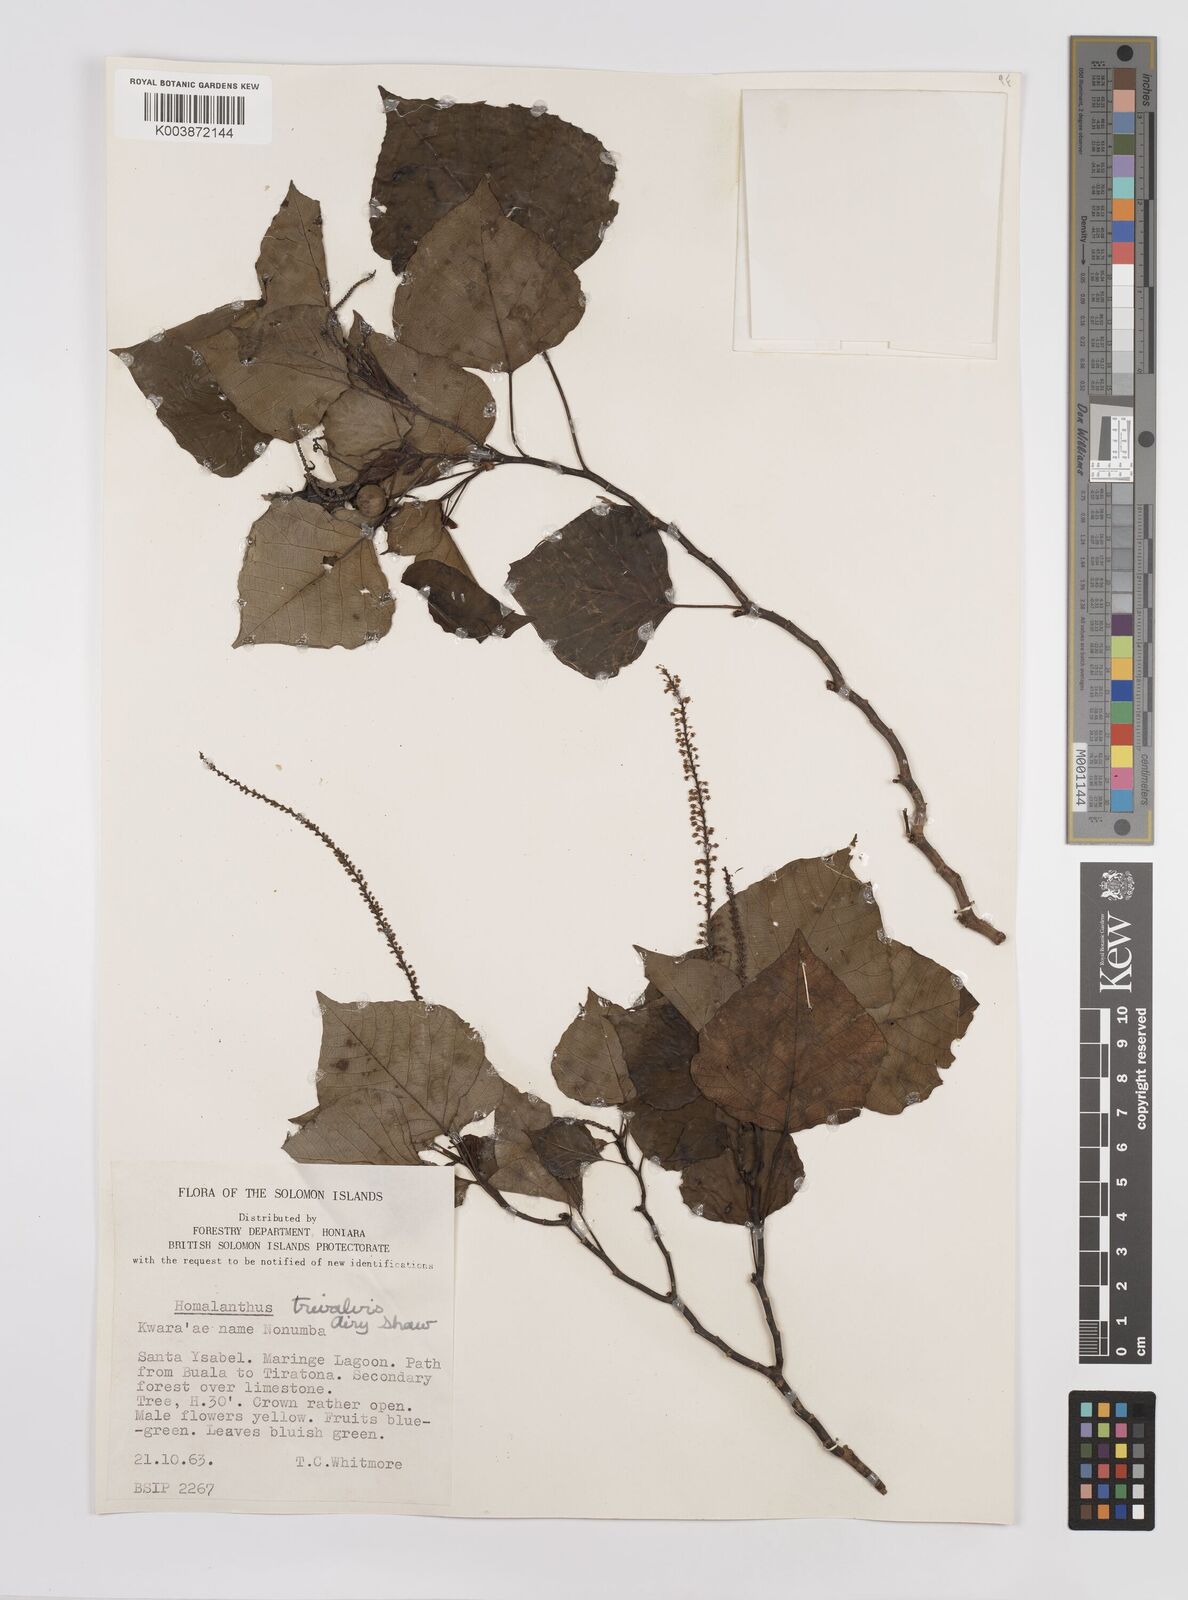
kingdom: Plantae
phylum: Tracheophyta
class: Magnoliopsida
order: Malpighiales
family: Euphorbiaceae
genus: Homalanthus
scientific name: Homalanthus trivalvis
